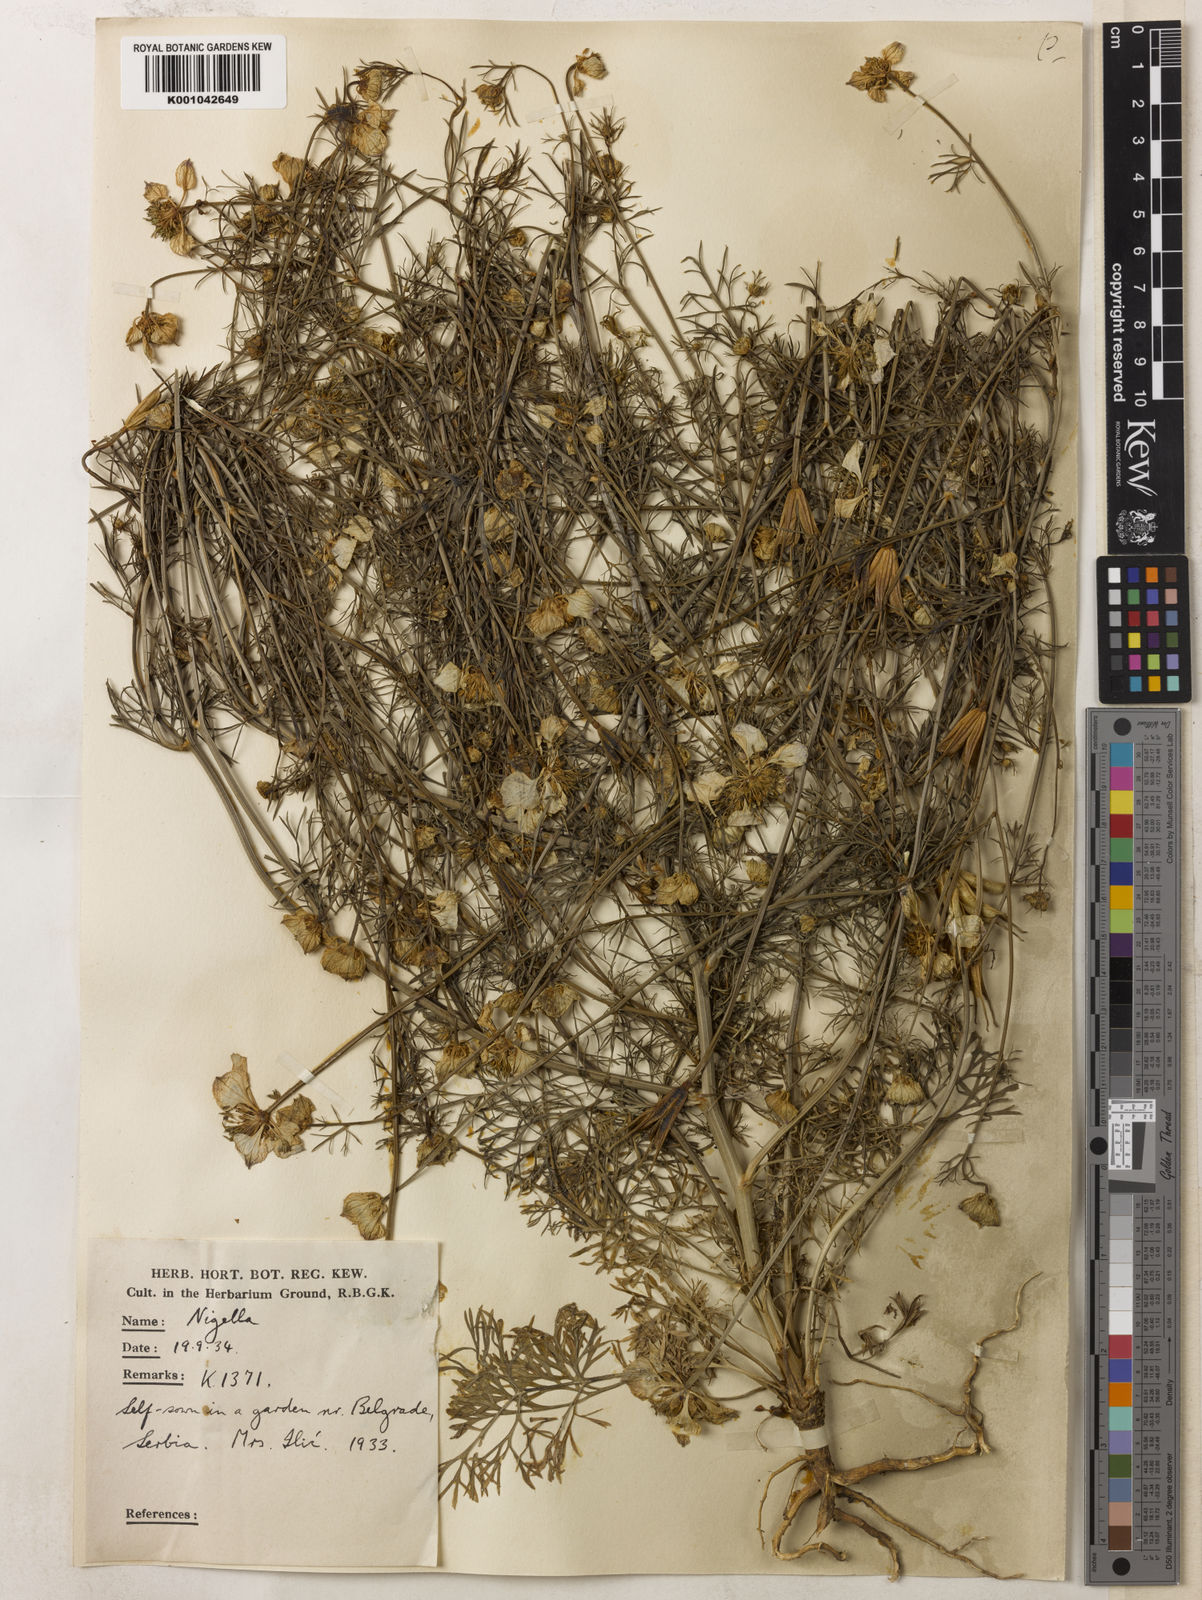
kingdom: Plantae
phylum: Tracheophyta
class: Magnoliopsida
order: Ranunculales
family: Ranunculaceae
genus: Nigella
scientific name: Nigella arvensis
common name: Wild fennel-flower
